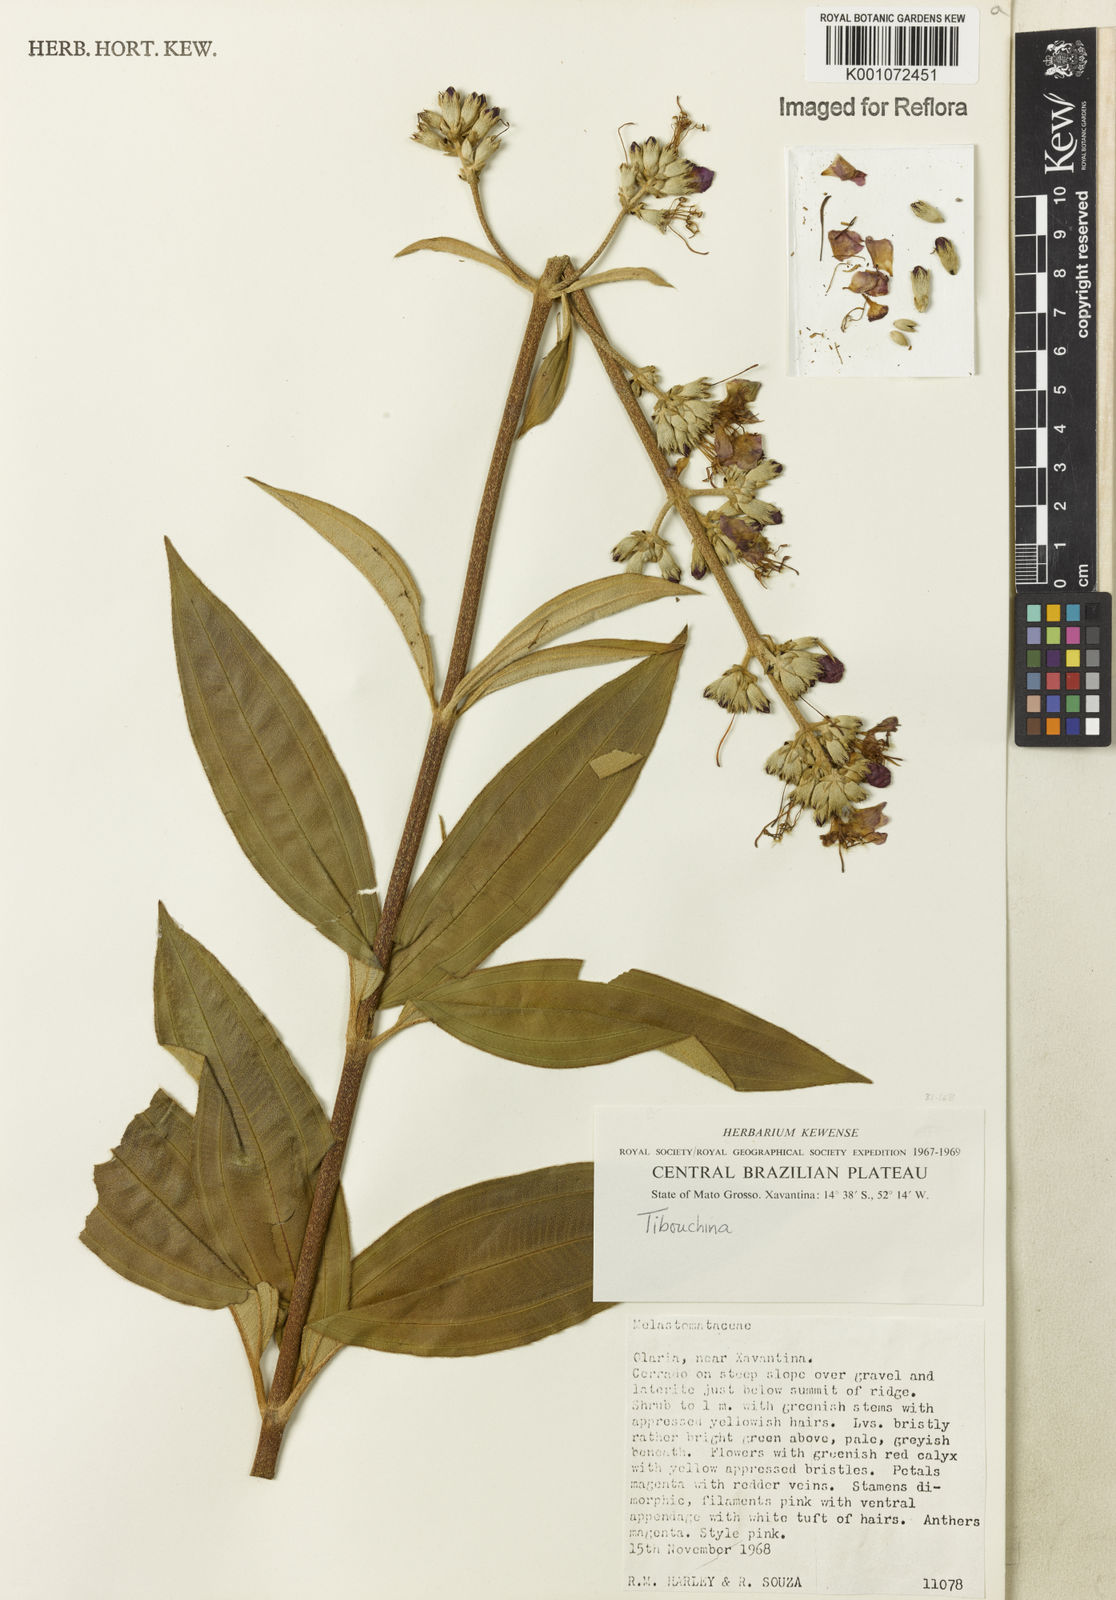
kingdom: Plantae
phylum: Tracheophyta
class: Magnoliopsida
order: Myrtales
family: Melastomataceae
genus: Tibouchina
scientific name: Tibouchina
